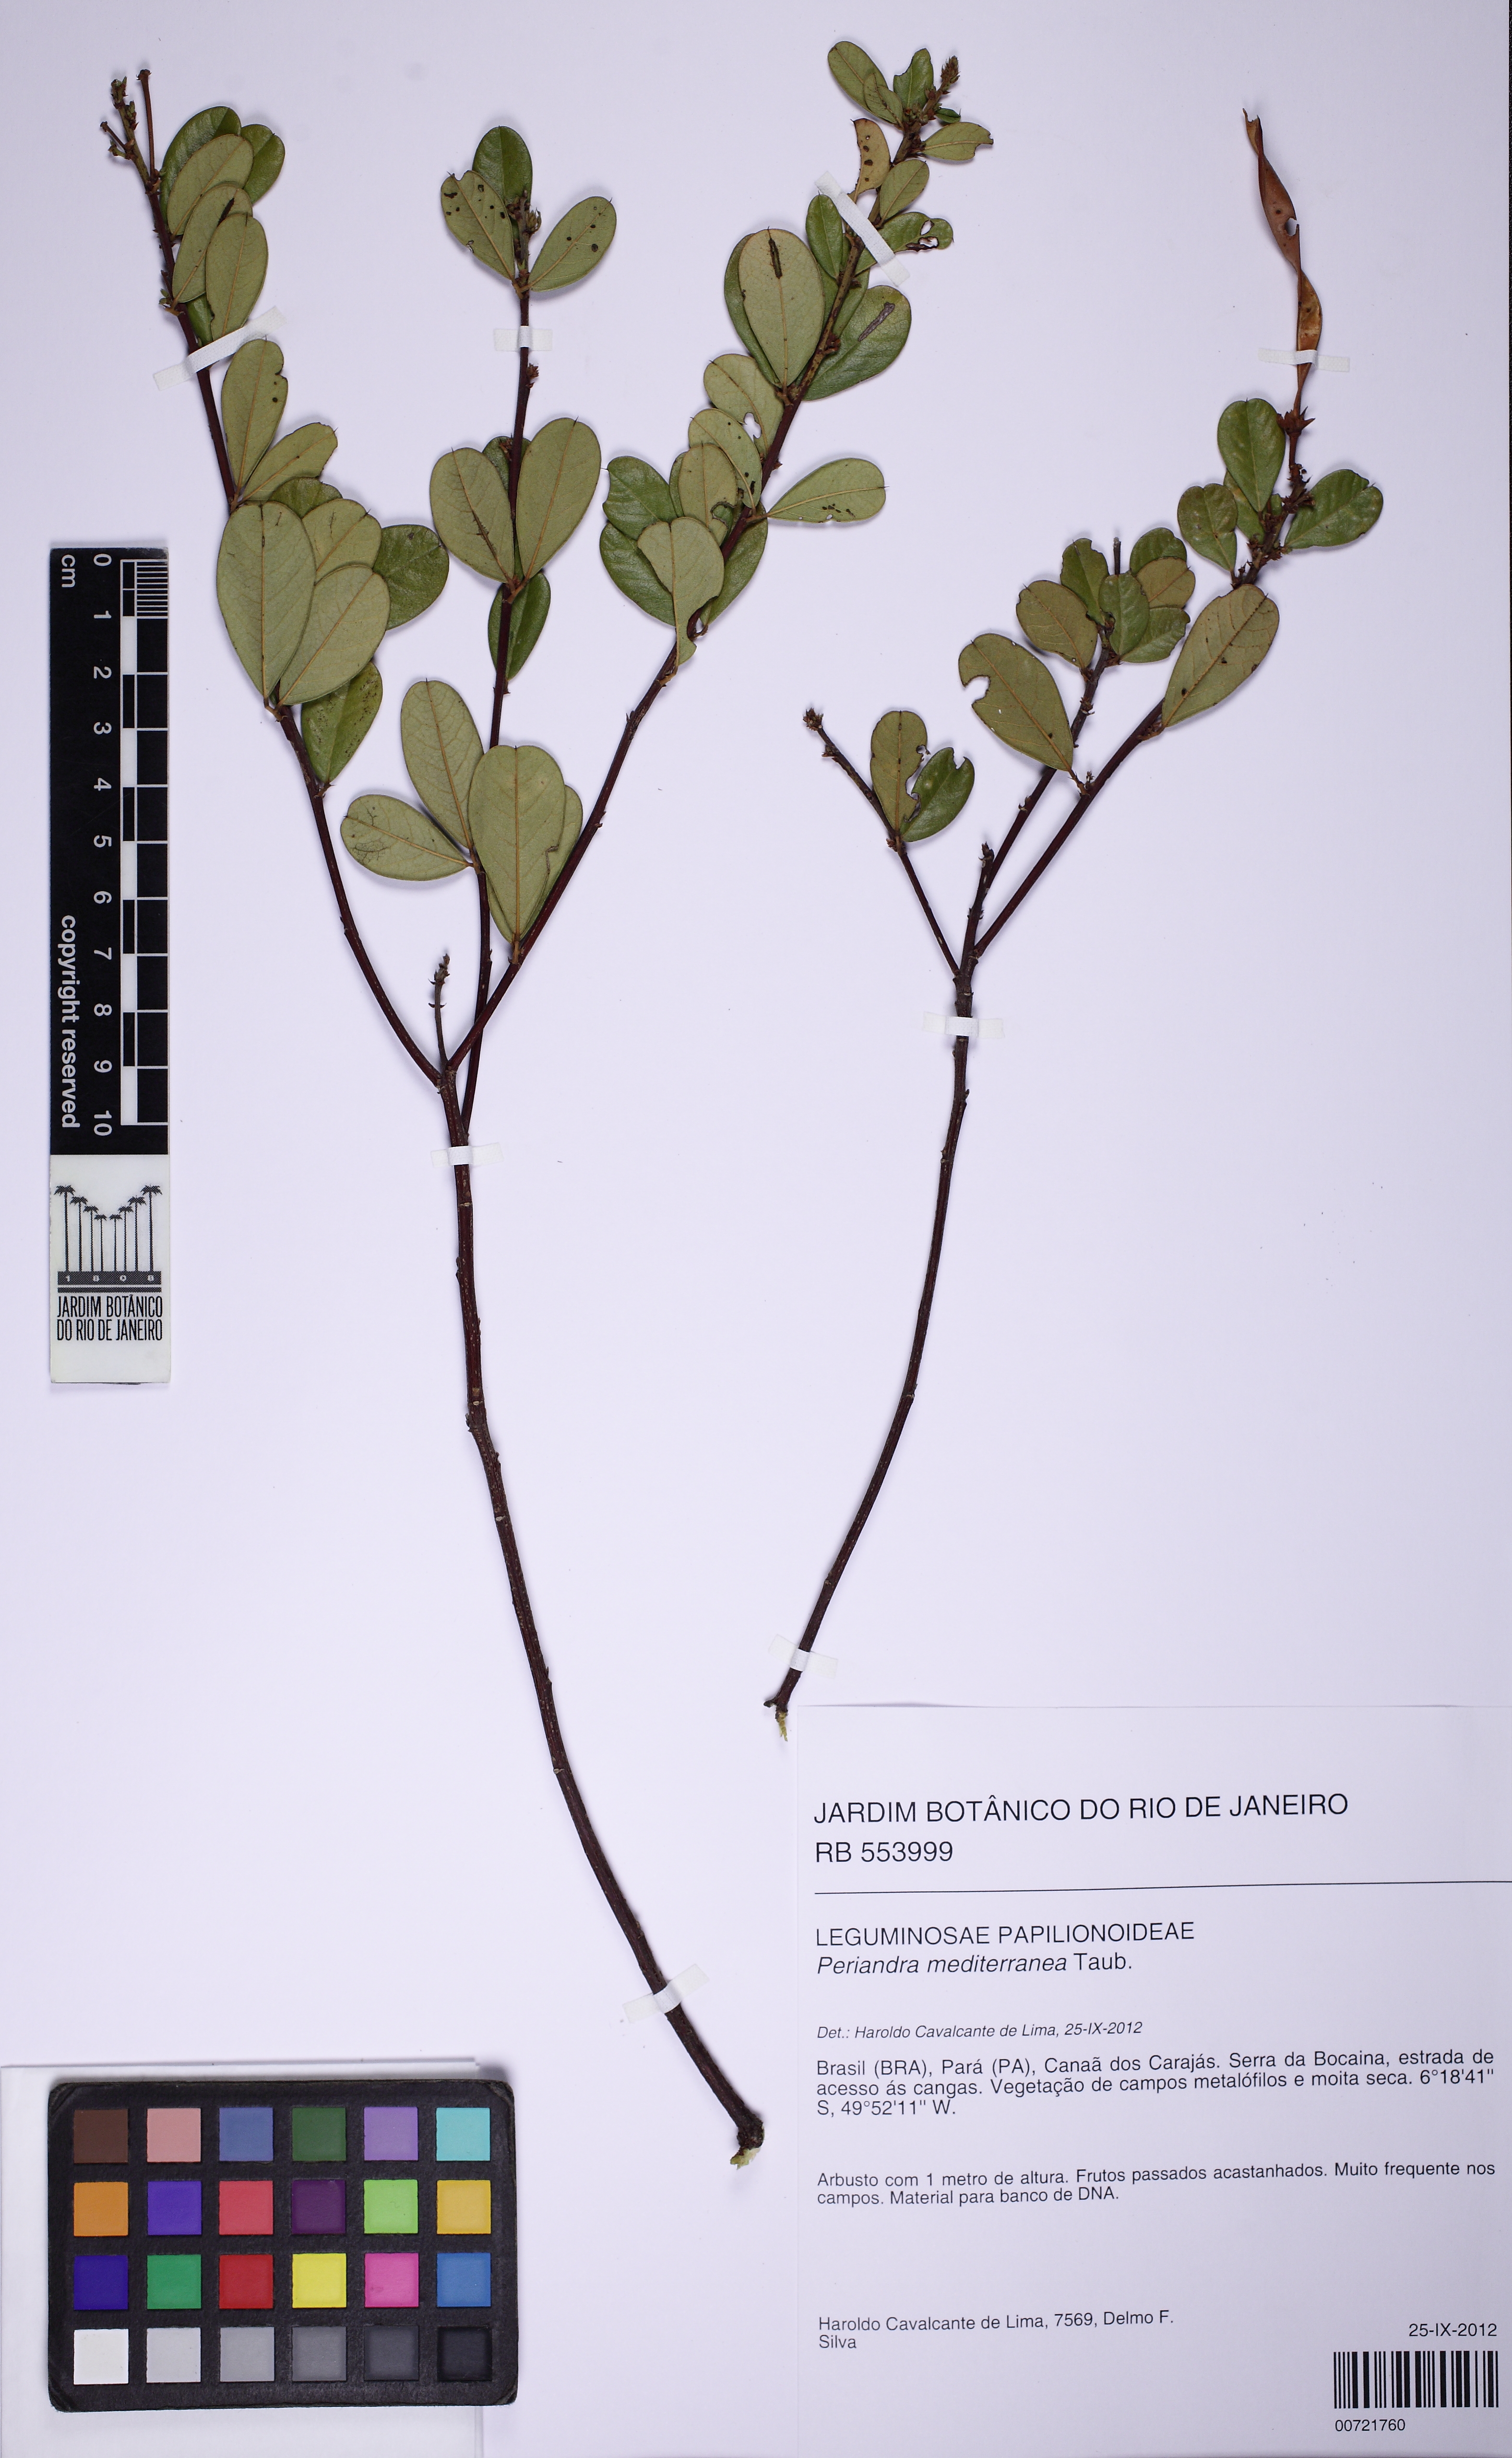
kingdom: Plantae
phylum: Tracheophyta
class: Magnoliopsida
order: Fabales
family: Fabaceae
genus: Periandra
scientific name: Periandra mediterranea
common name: Brazilian licorice
